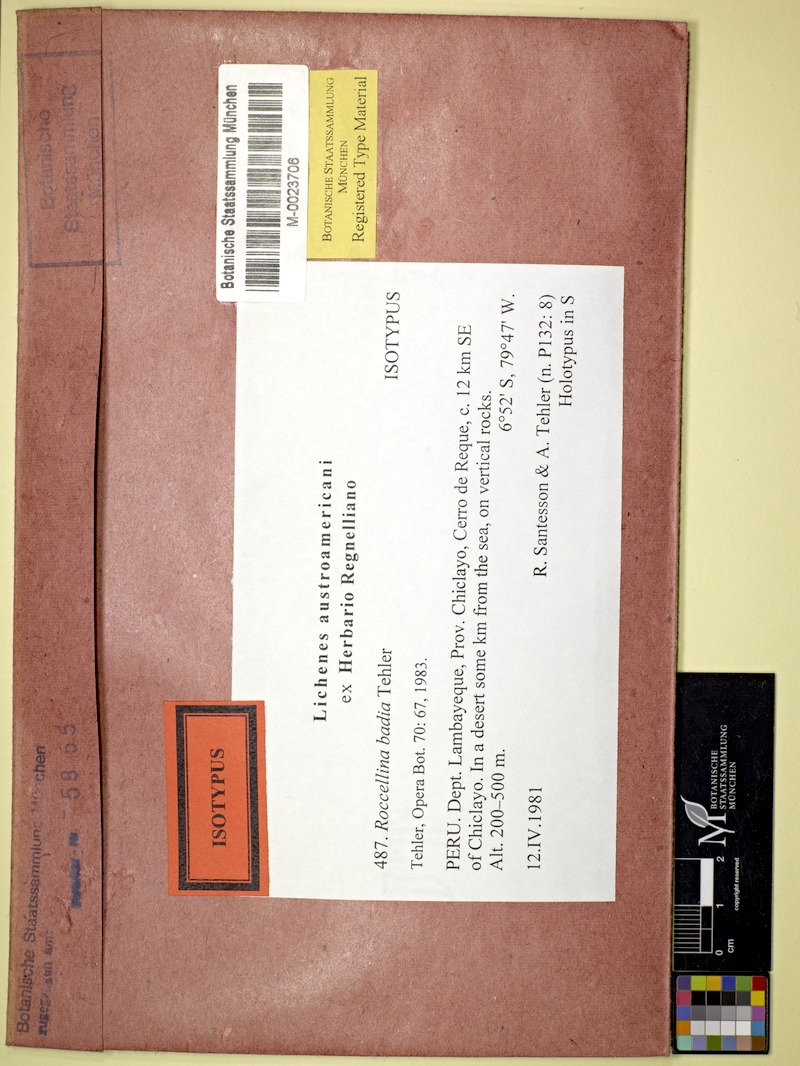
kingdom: Fungi
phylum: Ascomycota
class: Arthoniomycetes
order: Arthoniales
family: Roccellaceae
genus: Dirina
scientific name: Dirina badia
